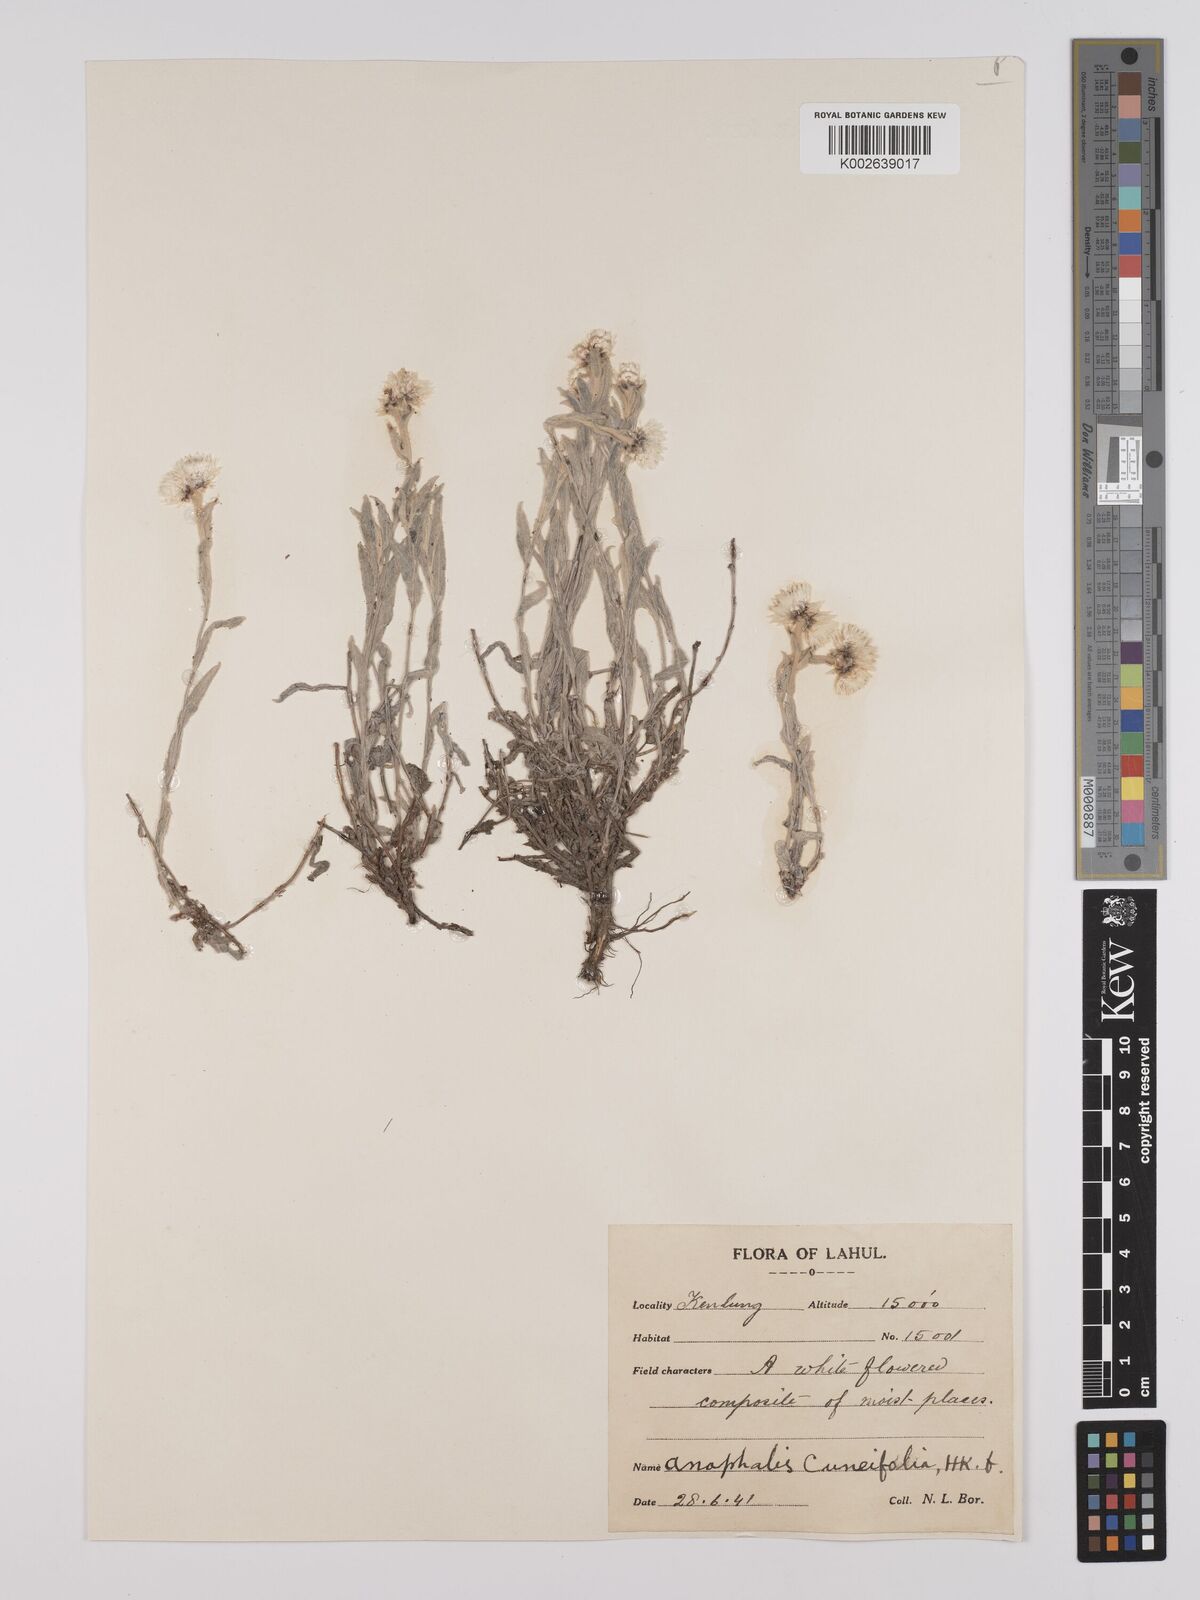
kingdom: Plantae
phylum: Tracheophyta
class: Magnoliopsida
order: Asterales
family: Asteraceae
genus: Anaphalioides
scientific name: Anaphalioides trinervis
